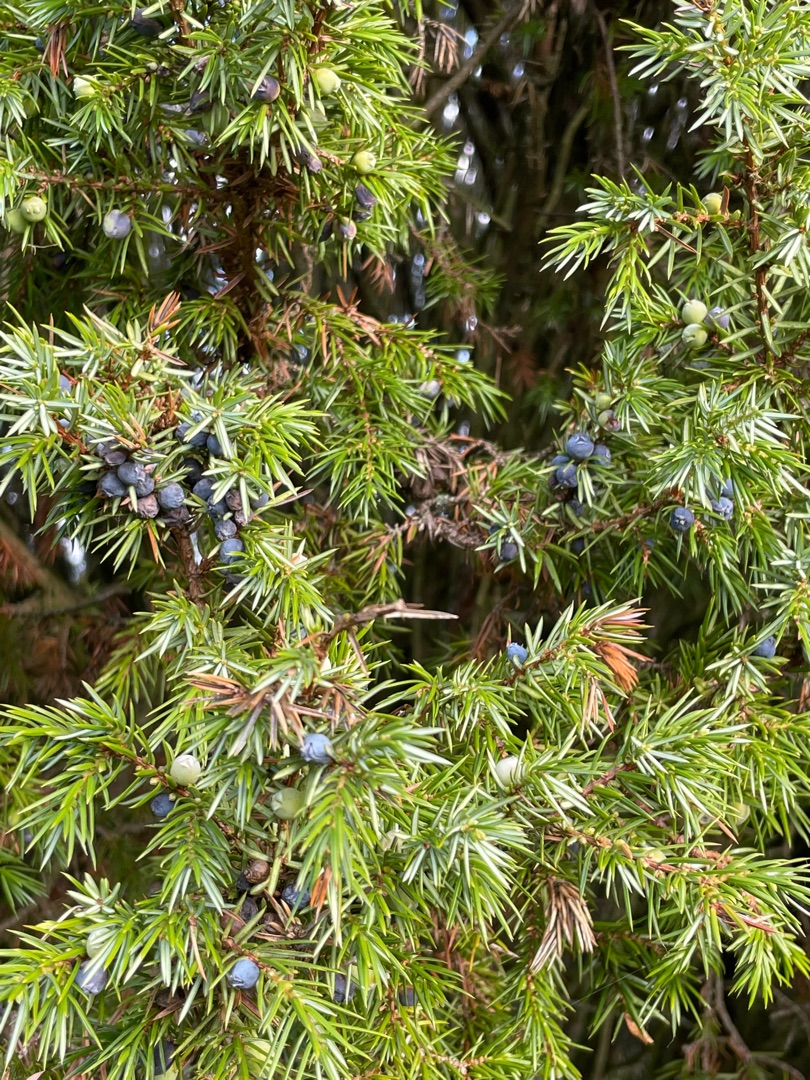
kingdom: Plantae
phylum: Tracheophyta
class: Pinopsida
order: Pinales
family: Cupressaceae
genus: Juniperus
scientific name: Juniperus communis
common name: Almindelig ene
